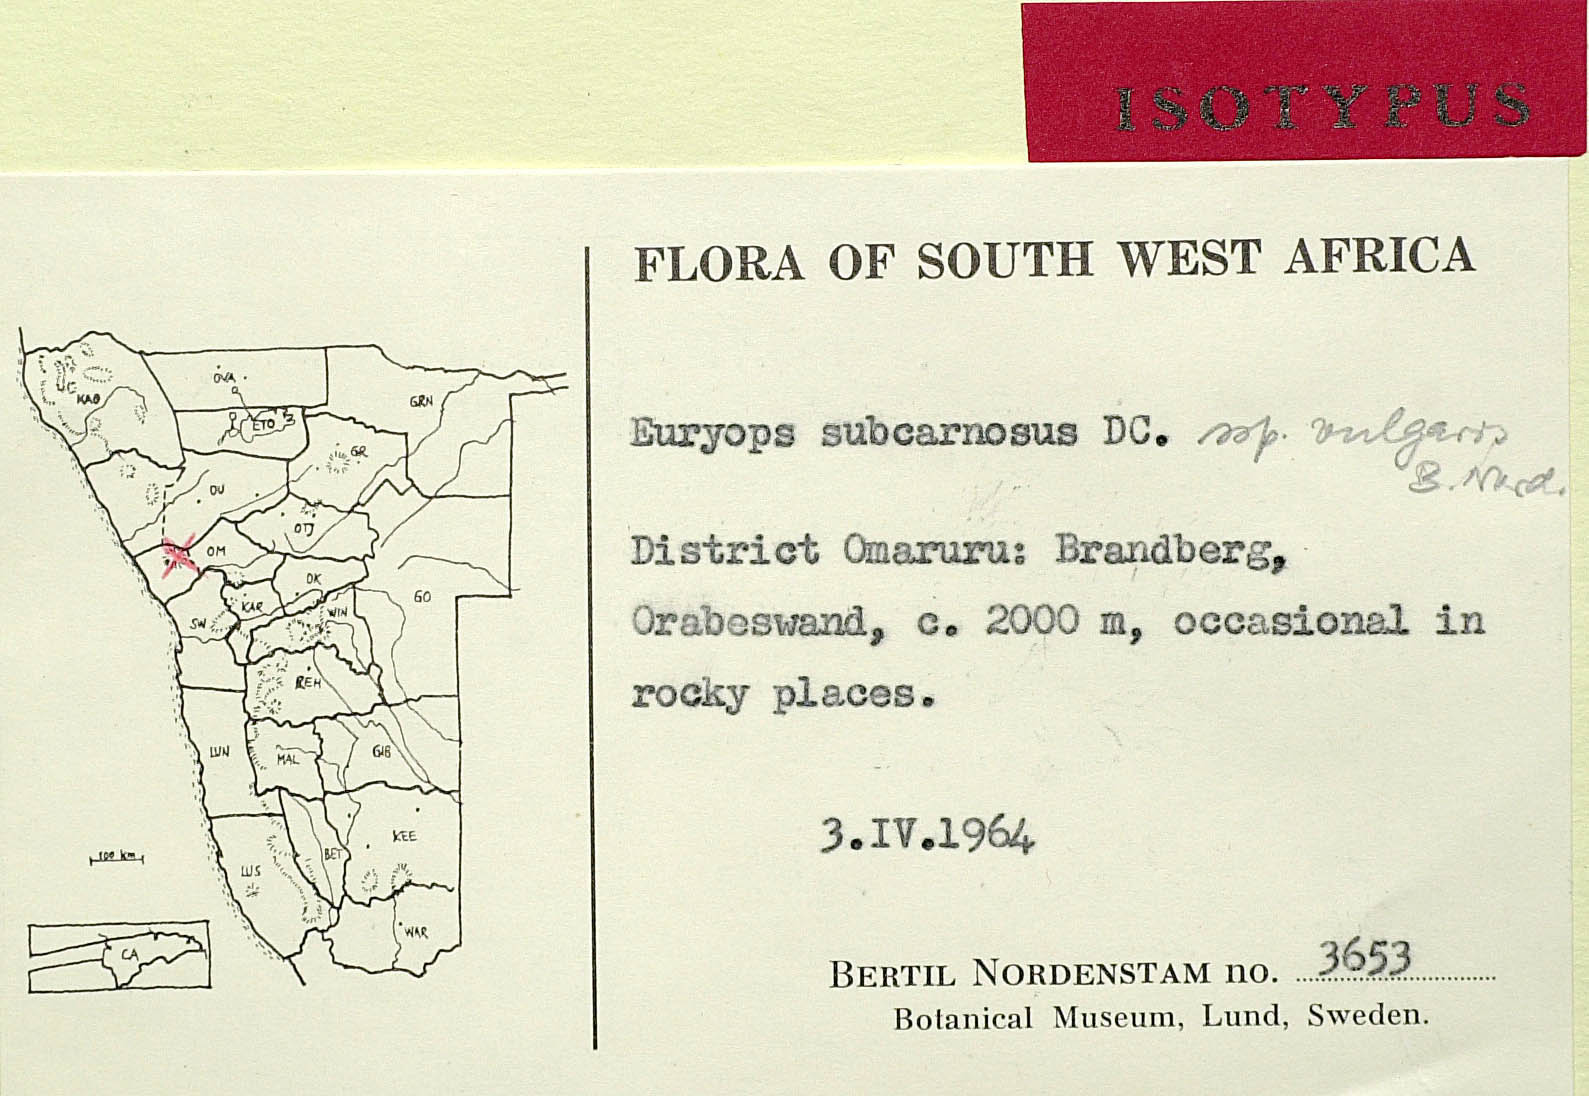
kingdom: Plantae
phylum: Tracheophyta
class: Magnoliopsida
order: Asterales
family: Asteraceae
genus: Euryops
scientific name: Euryops subcarnosus
